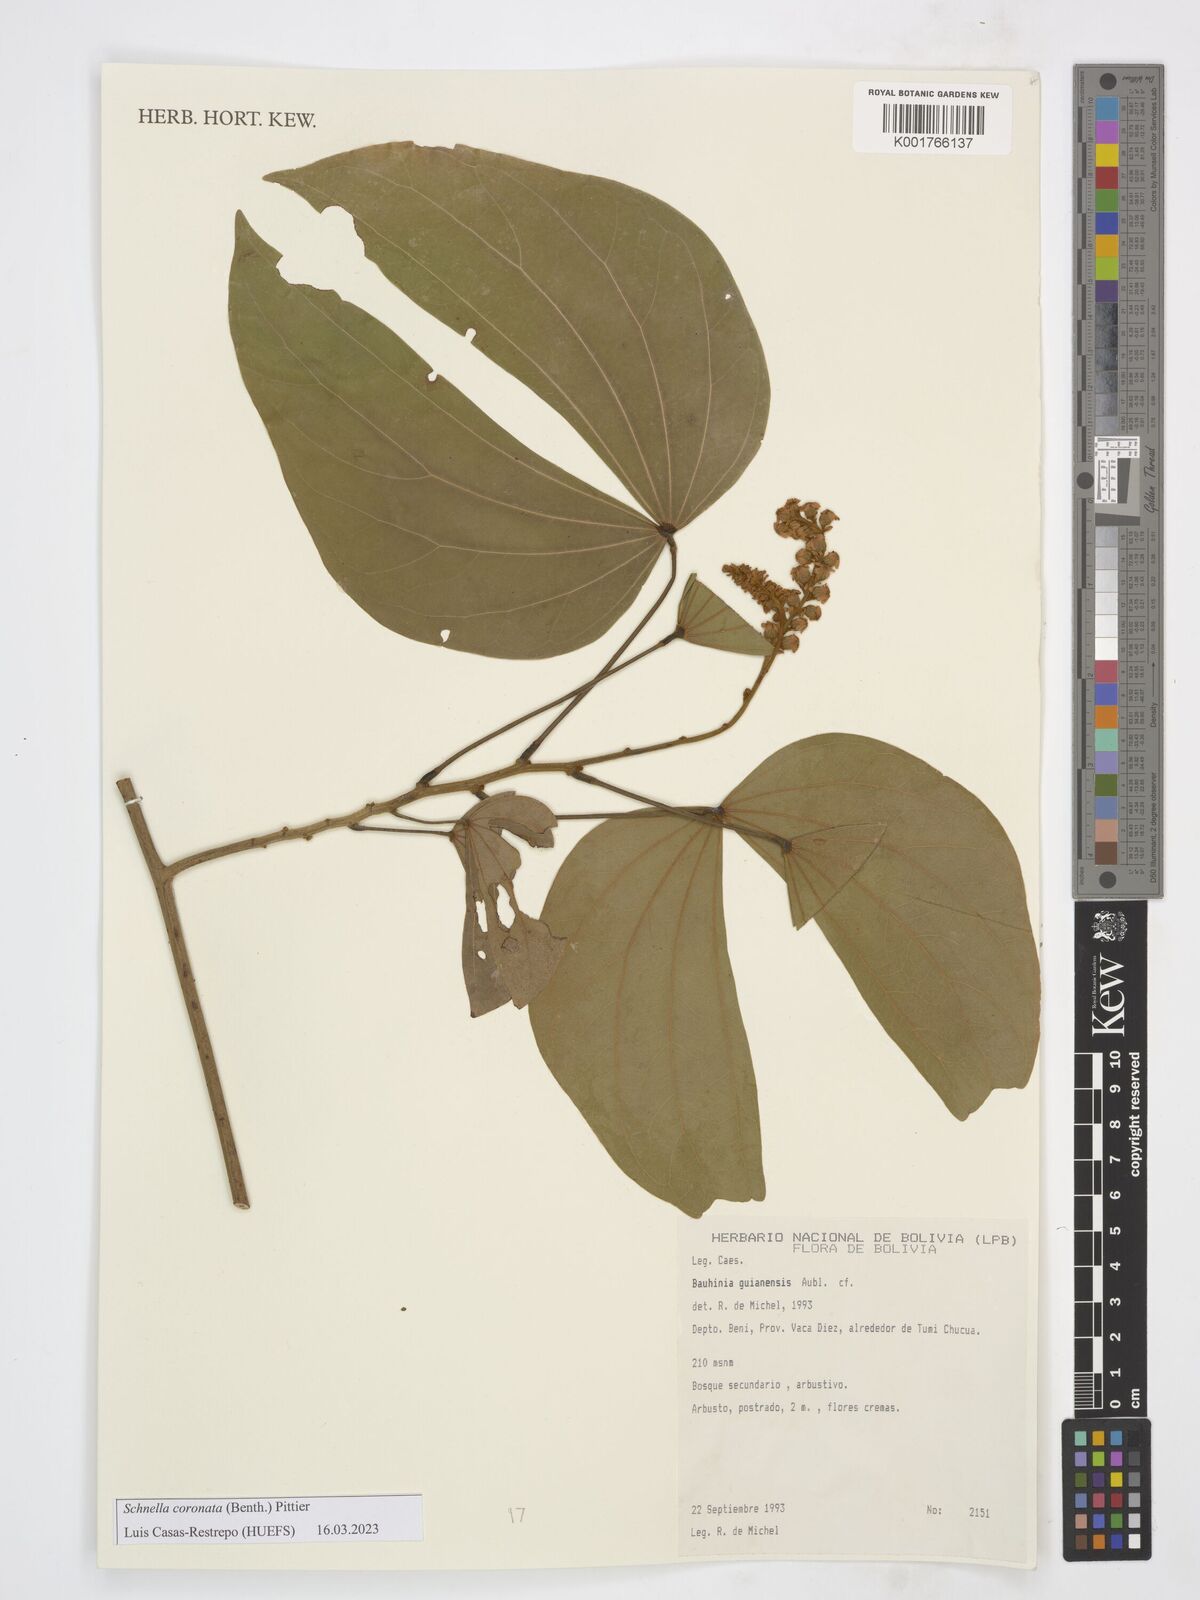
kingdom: Plantae
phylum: Tracheophyta
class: Magnoliopsida
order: Fabales
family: Fabaceae
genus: Schnella
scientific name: Schnella outimouta
